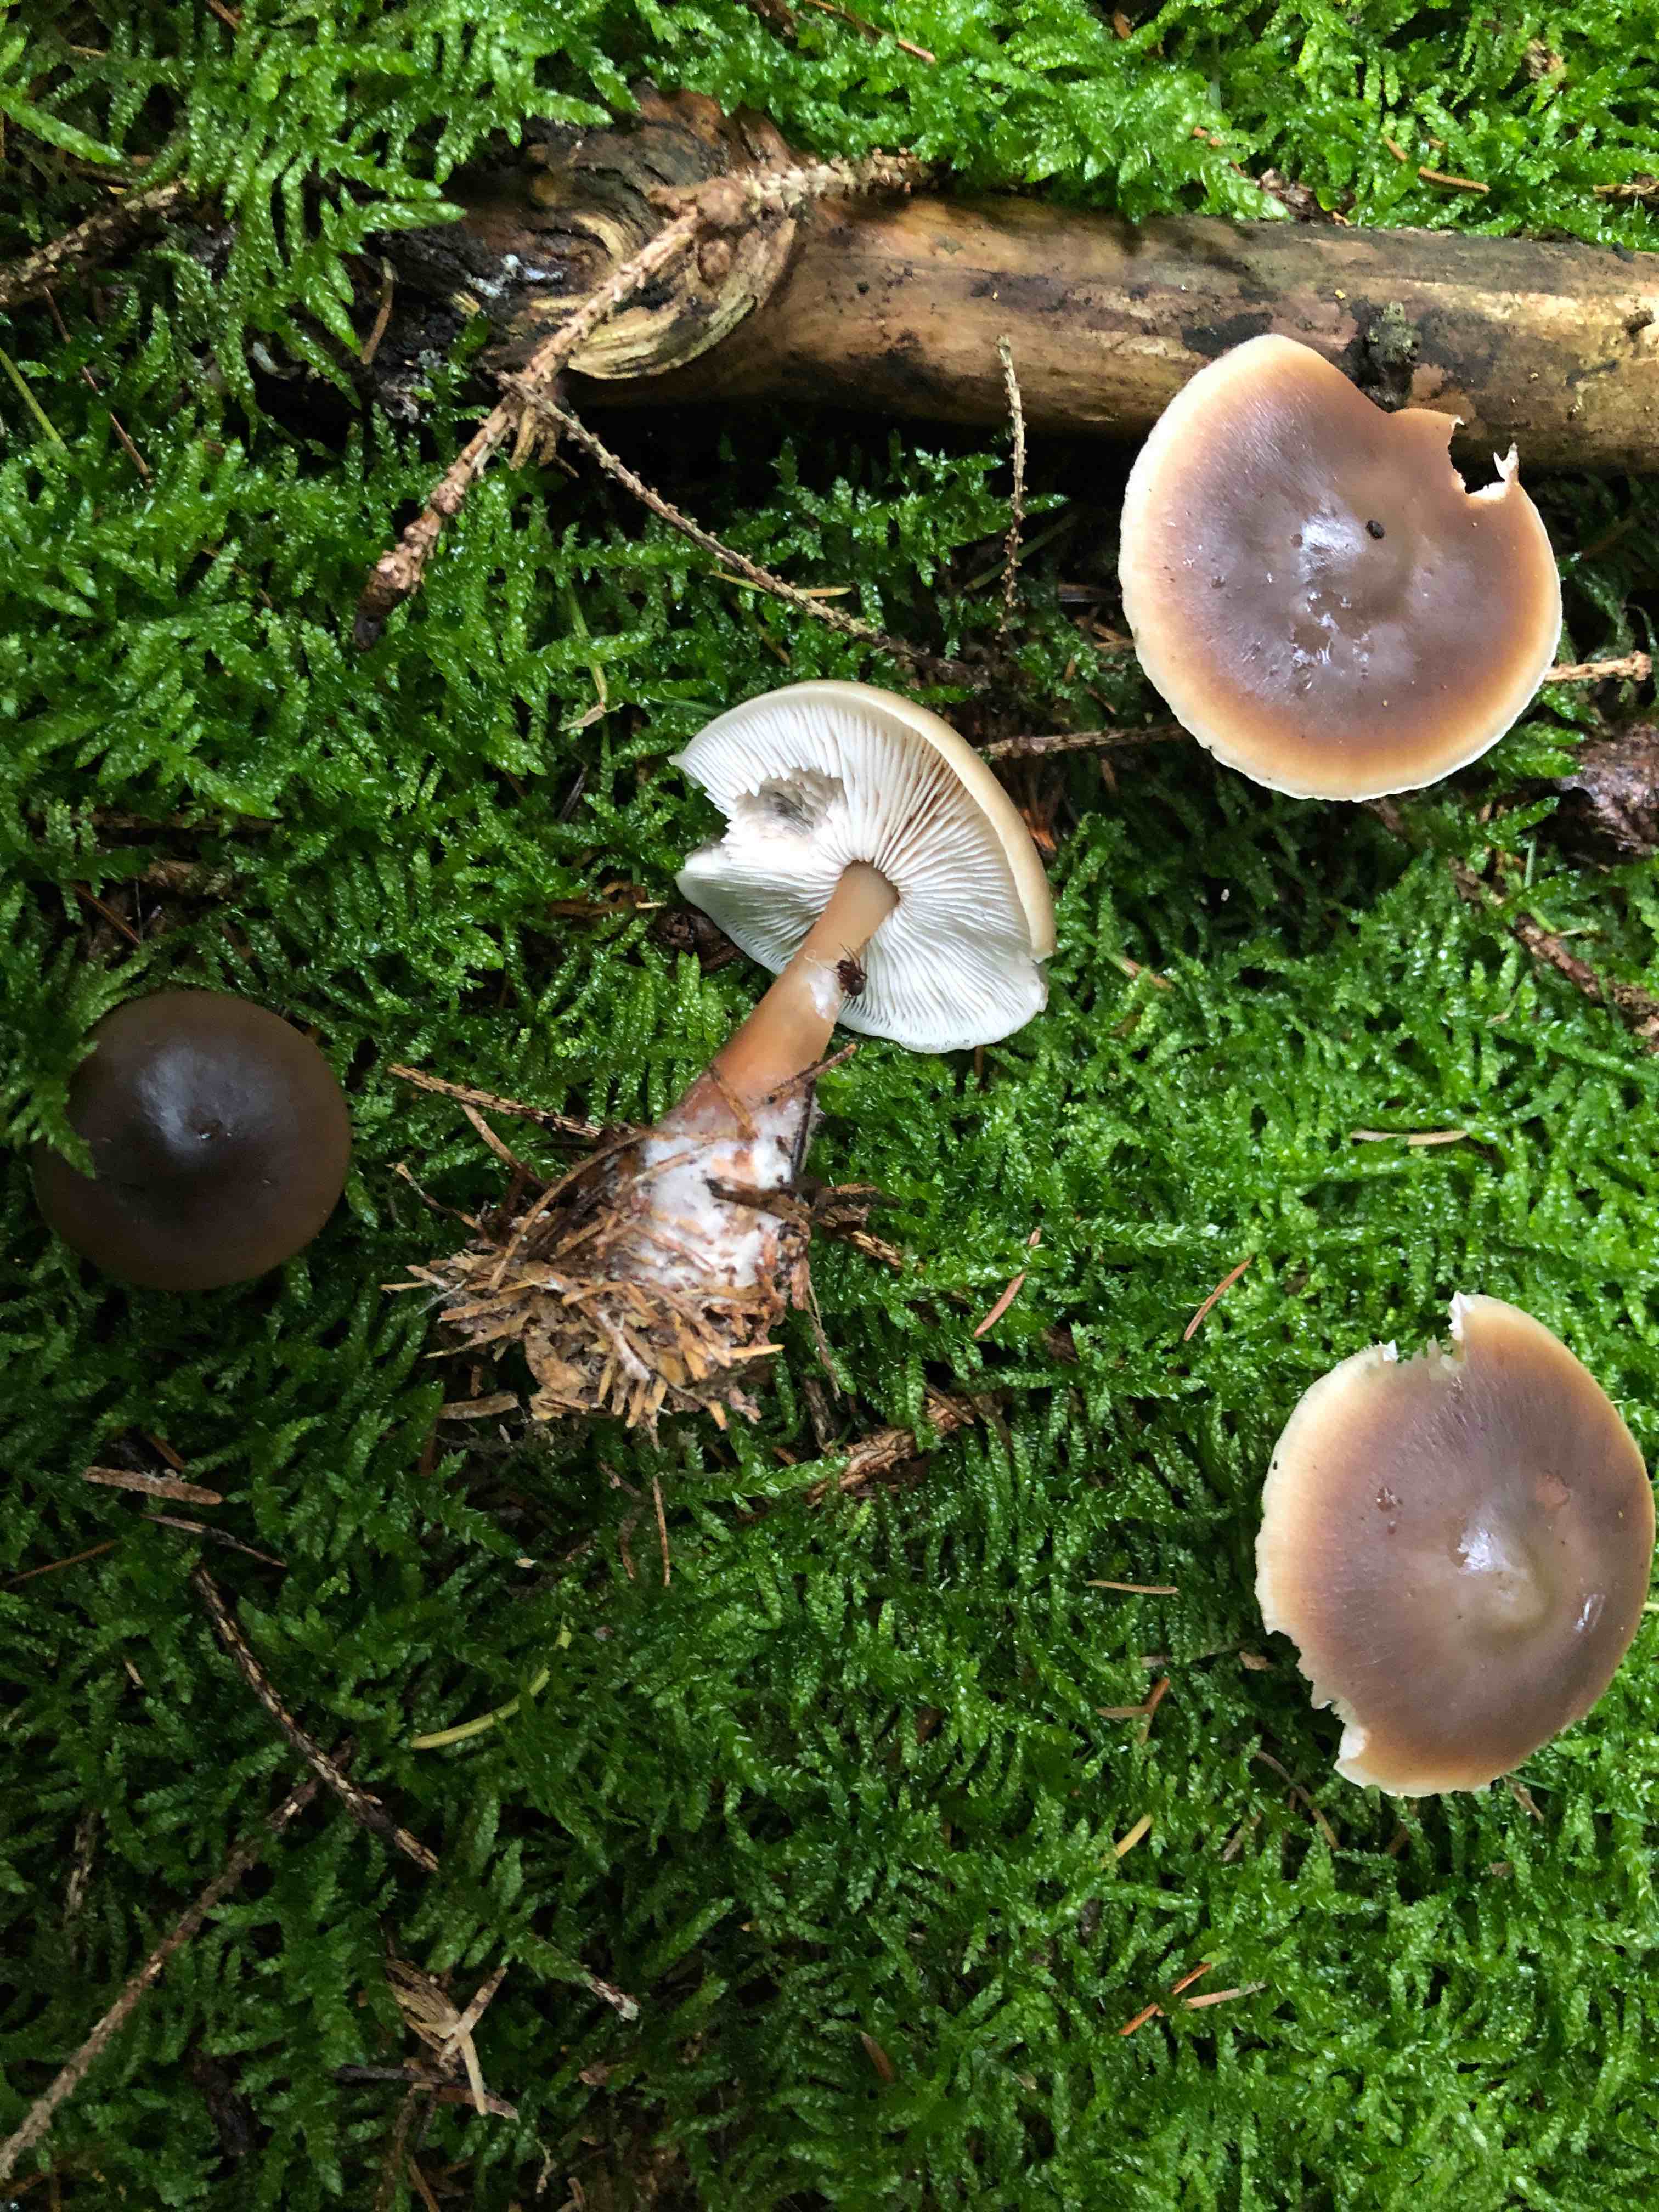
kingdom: Fungi
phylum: Basidiomycota
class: Agaricomycetes
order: Agaricales
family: Omphalotaceae
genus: Rhodocollybia
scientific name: Rhodocollybia butyracea
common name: keglestokket fladhat
